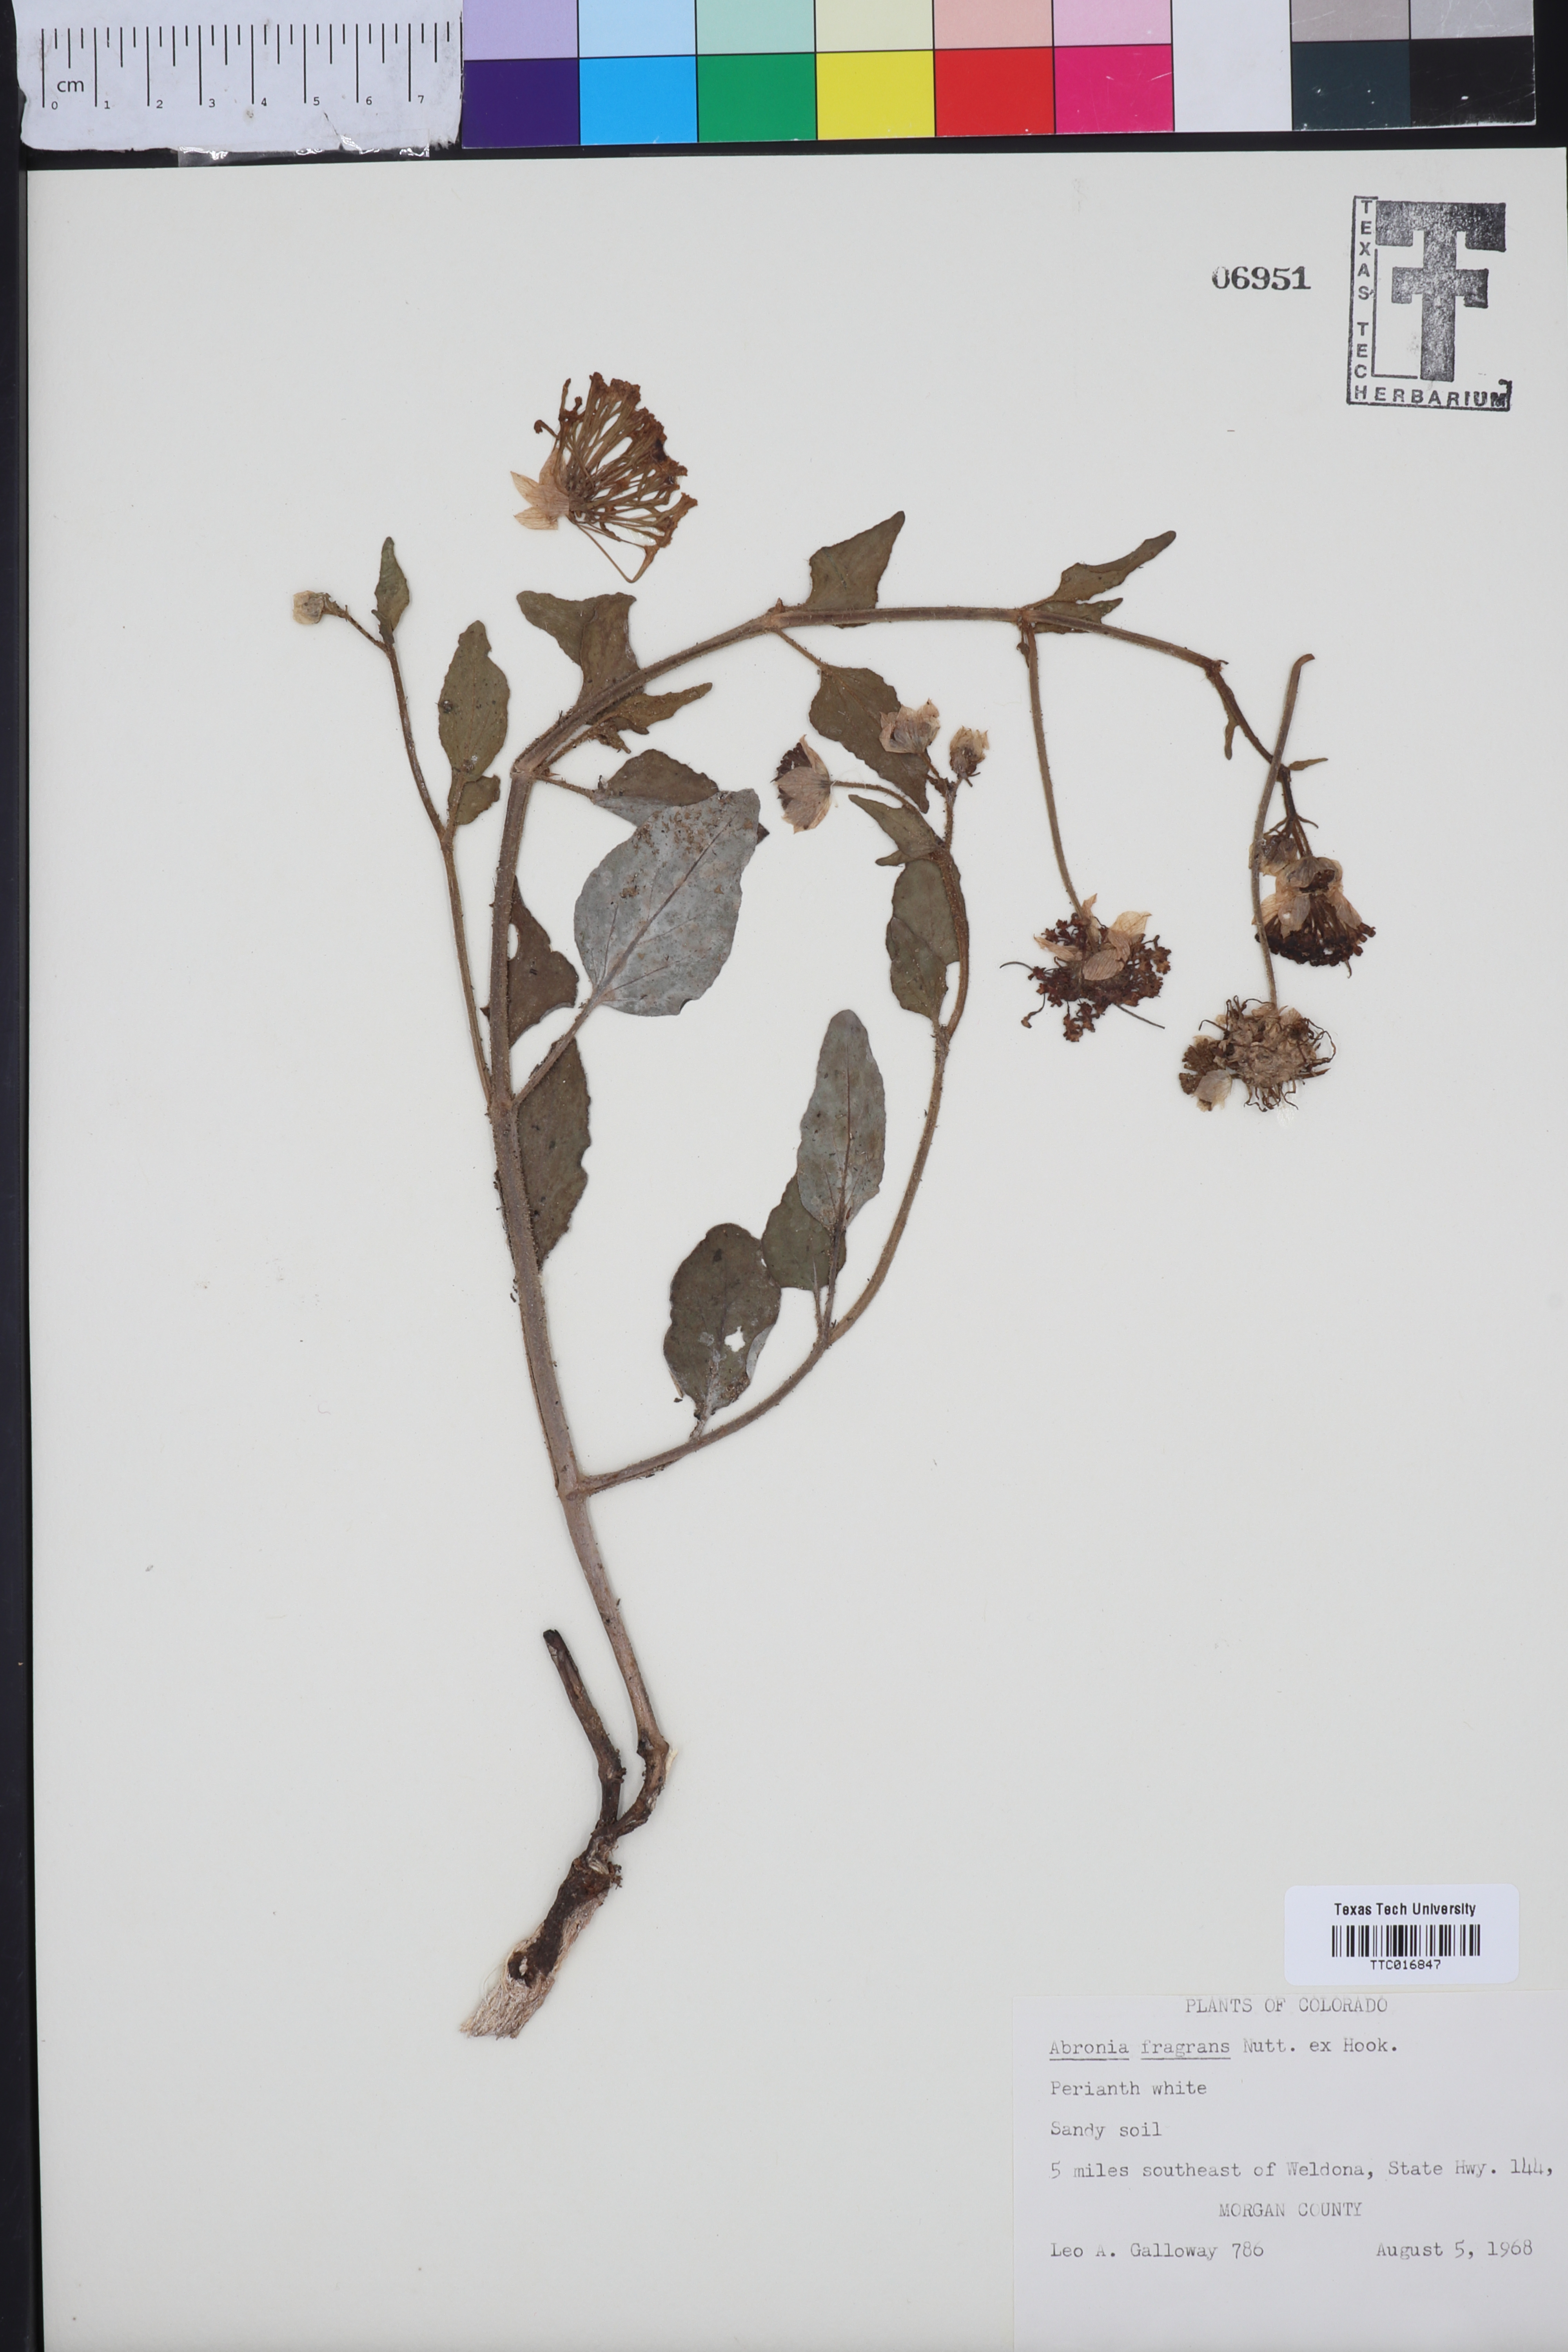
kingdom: Plantae
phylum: Tracheophyta
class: Magnoliopsida
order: Caryophyllales
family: Nyctaginaceae
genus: Abronia
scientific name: Abronia fragrans
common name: Fragrant sand-verbena
